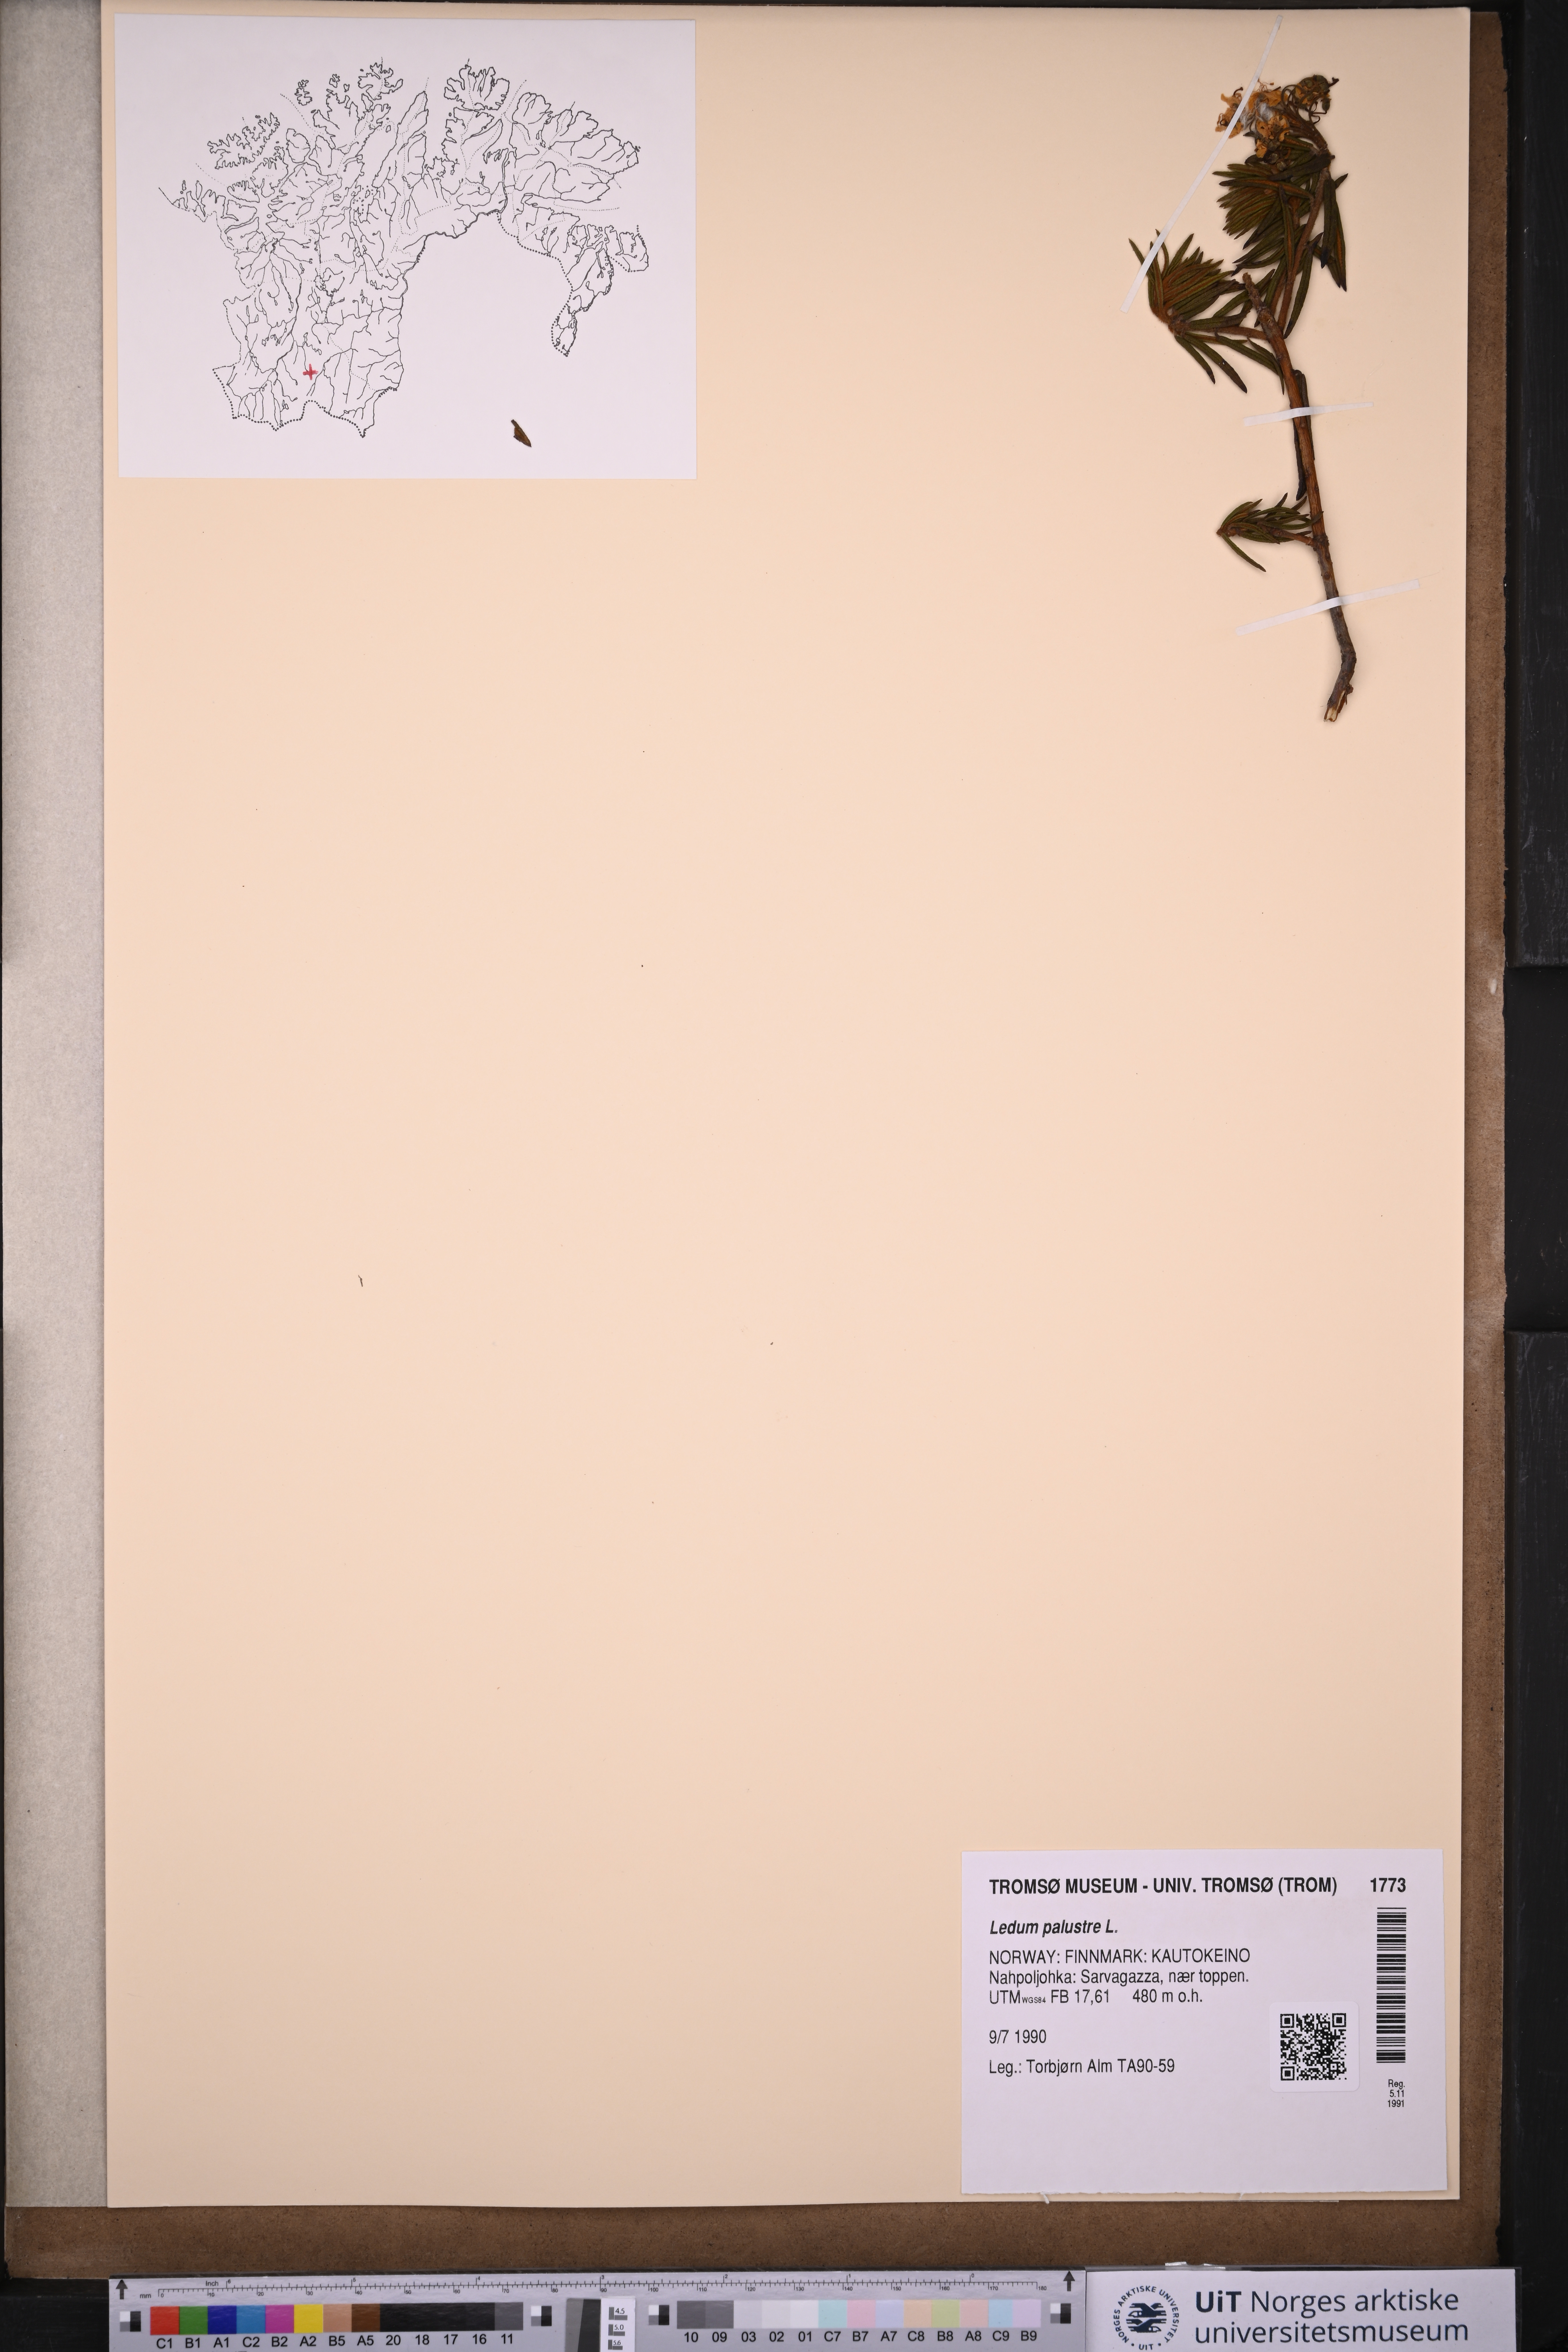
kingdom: Plantae
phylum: Tracheophyta
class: Magnoliopsida
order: Ericales
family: Ericaceae
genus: Rhododendron
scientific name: Rhododendron tomentosum
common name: Marsh labrador tea
